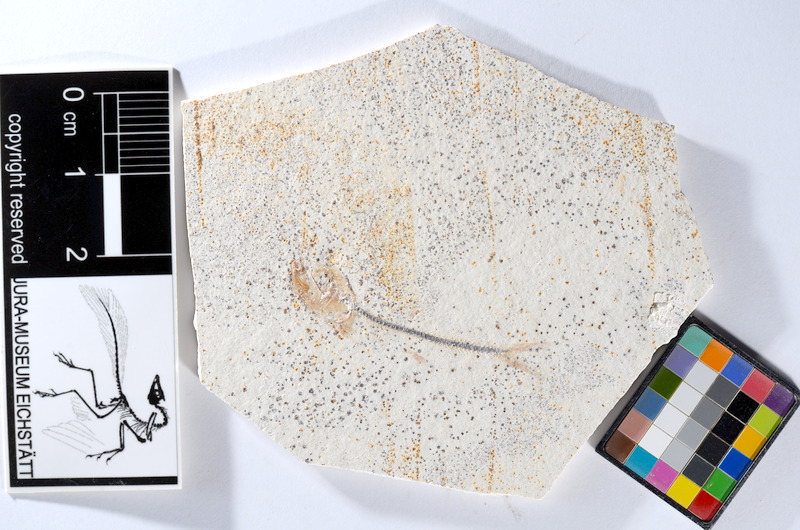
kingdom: Animalia
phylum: Chordata
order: Salmoniformes
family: Orthogonikleithridae
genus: Orthogonikleithrus
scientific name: Orthogonikleithrus hoelli
